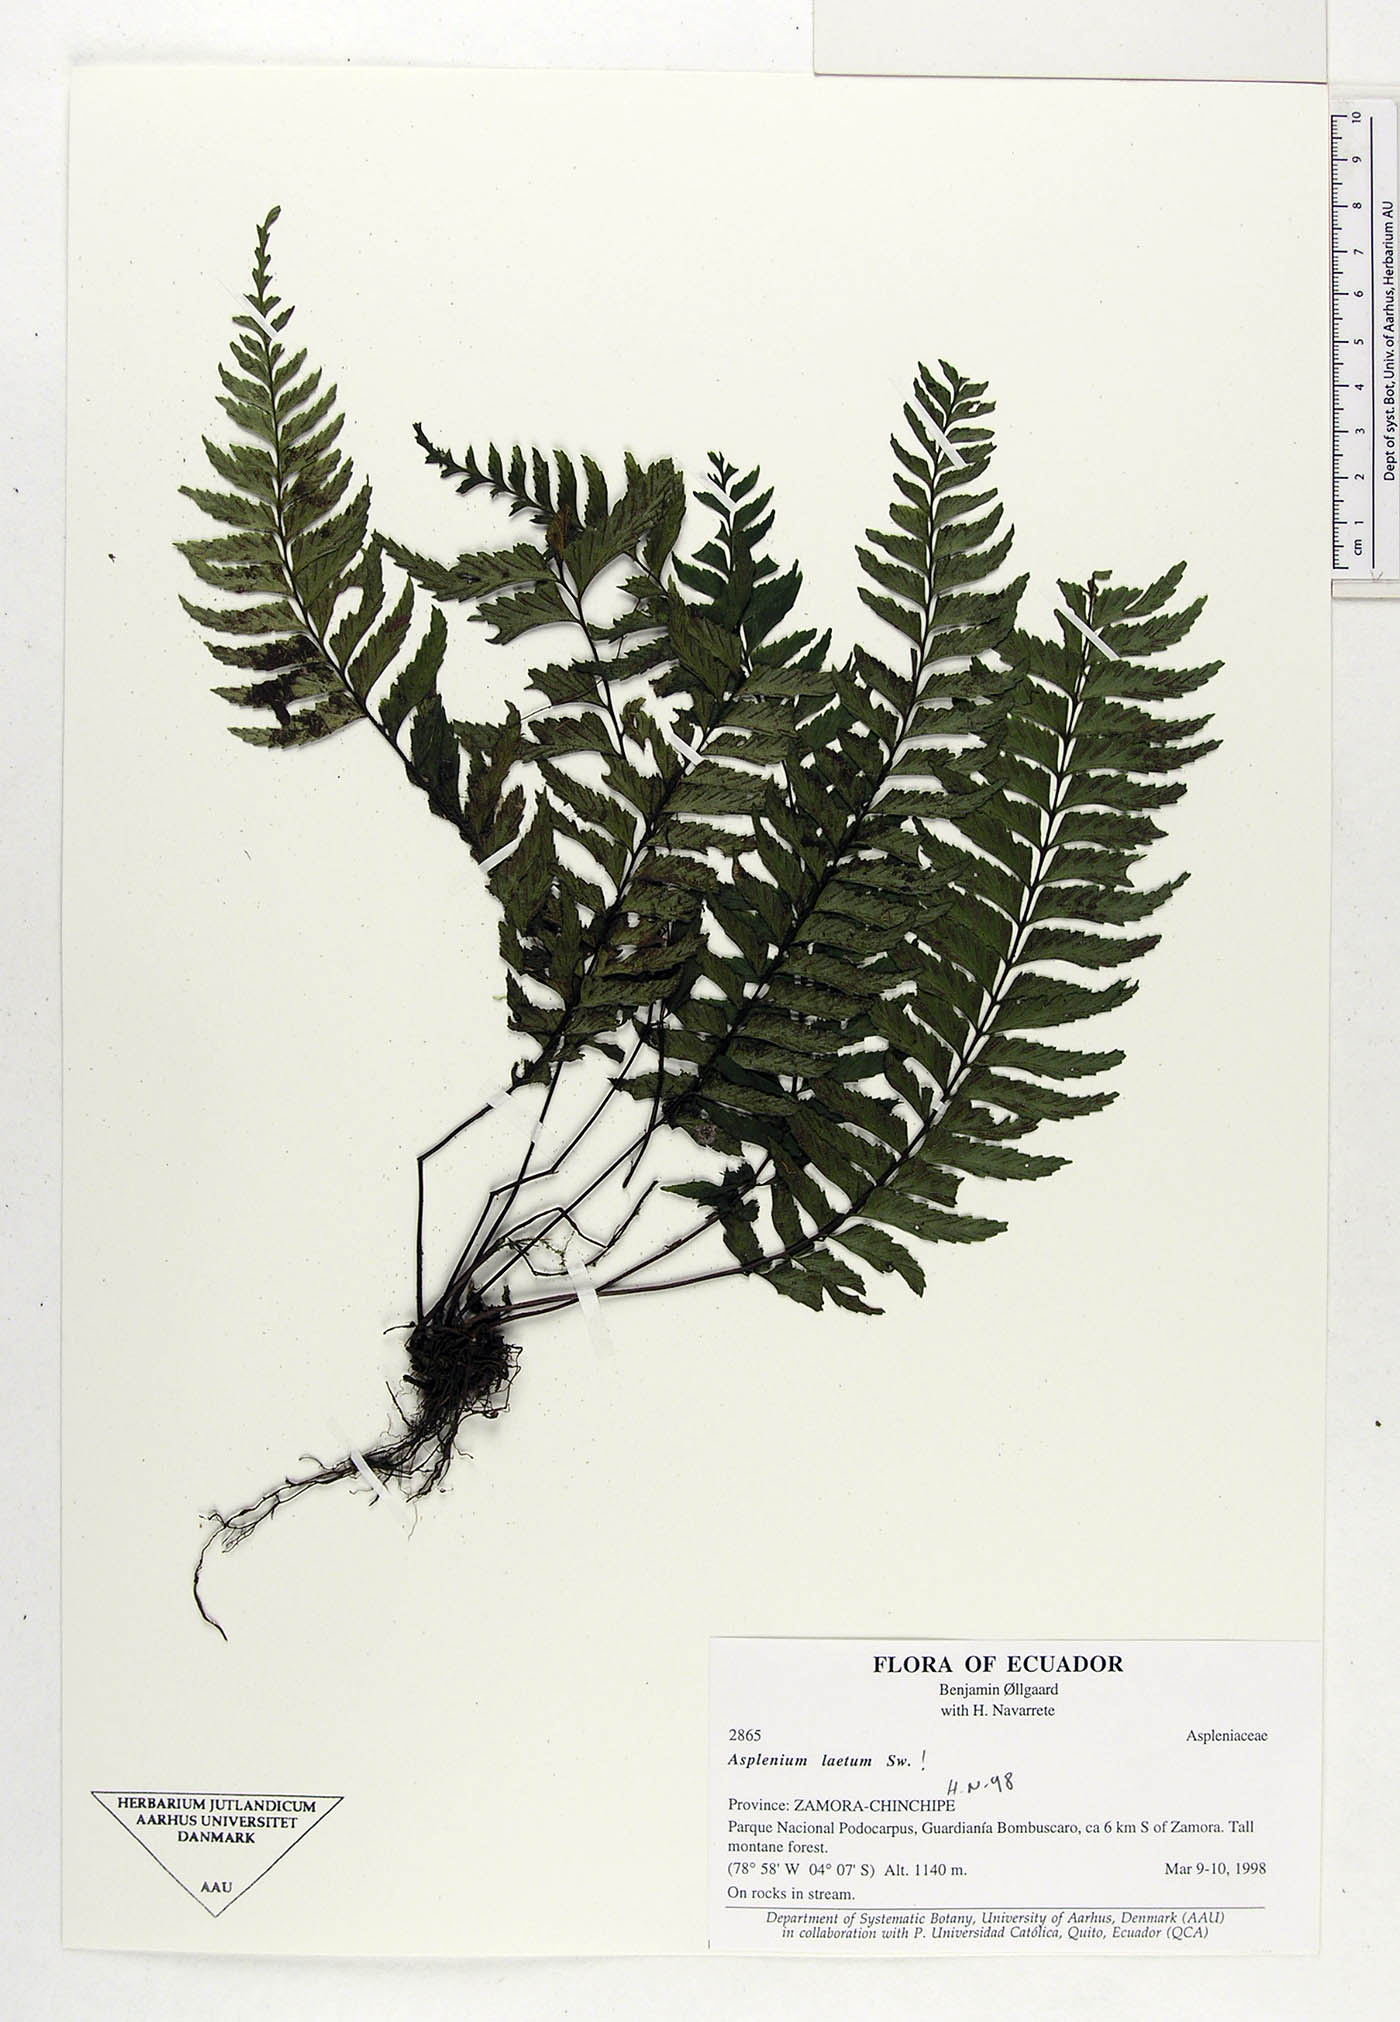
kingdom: Plantae
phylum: Tracheophyta
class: Polypodiopsida
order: Polypodiales
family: Aspleniaceae
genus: Hymenasplenium
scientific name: Hymenasplenium laetum
